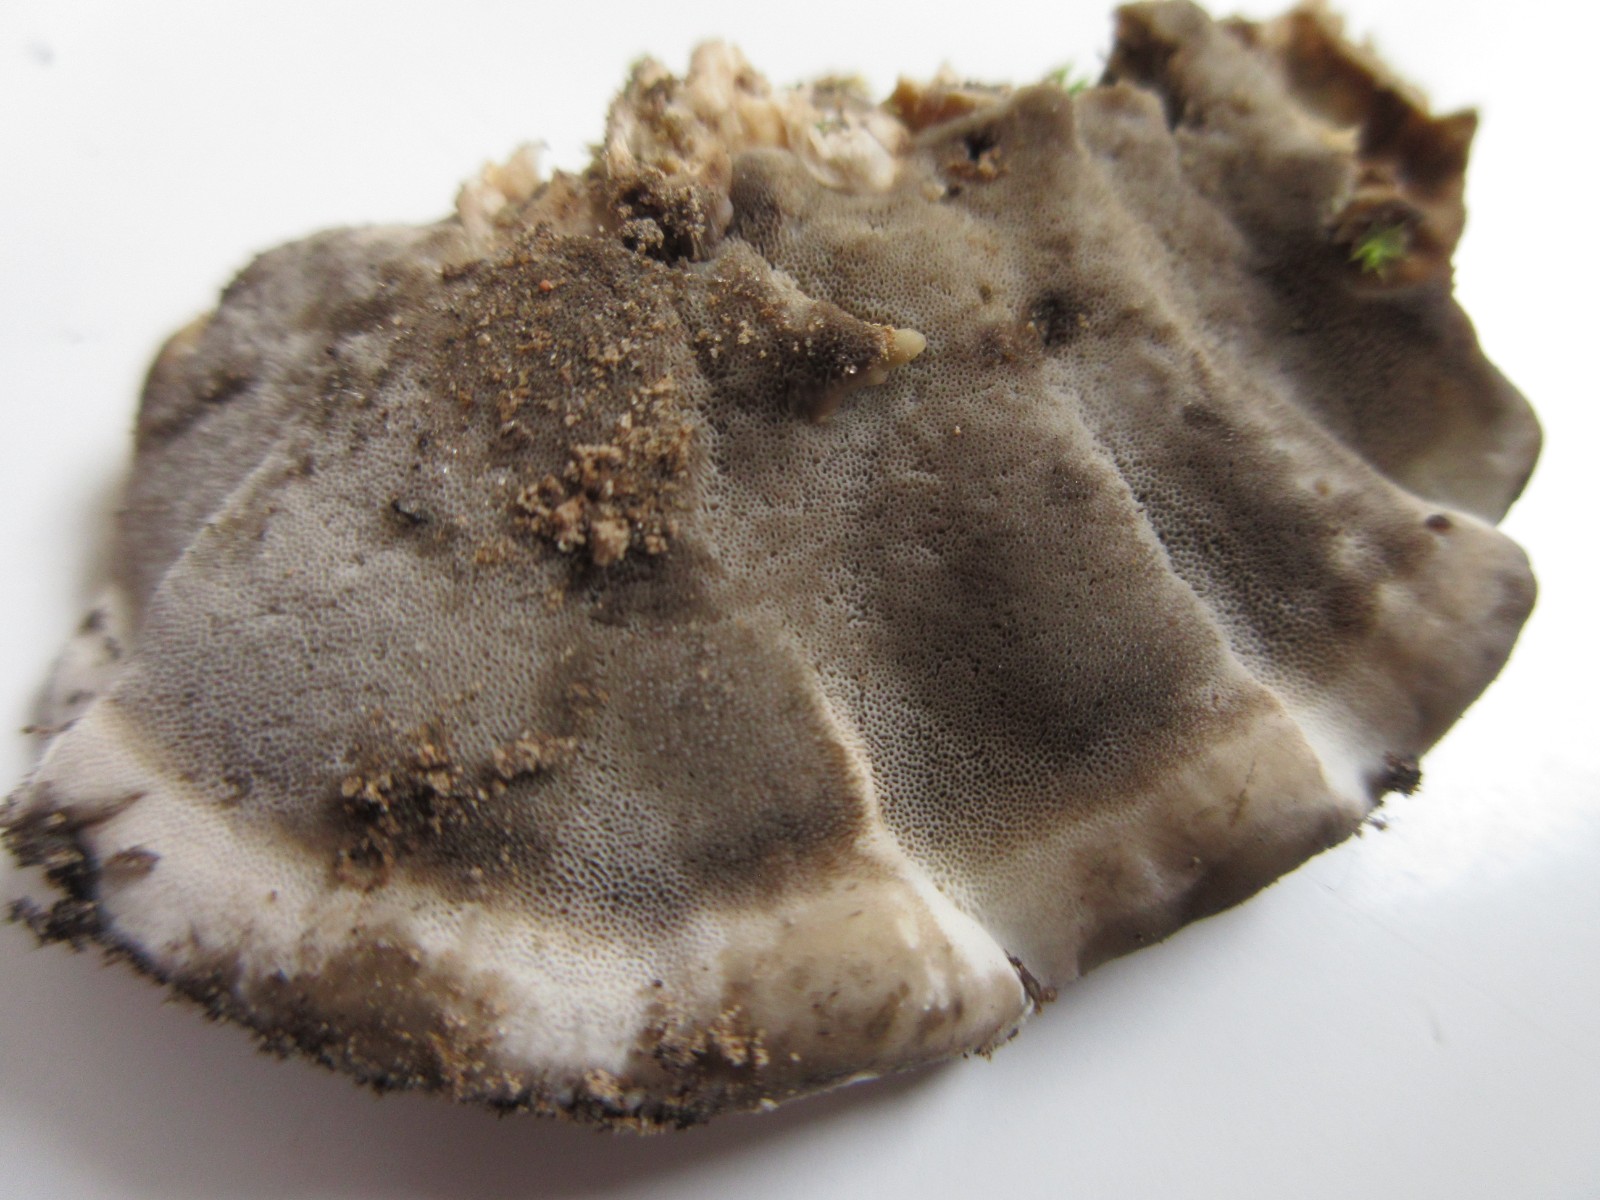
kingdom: Fungi
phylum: Basidiomycota
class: Agaricomycetes
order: Polyporales
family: Phanerochaetaceae
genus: Bjerkandera
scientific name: Bjerkandera adusta
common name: sveden sodporesvamp
